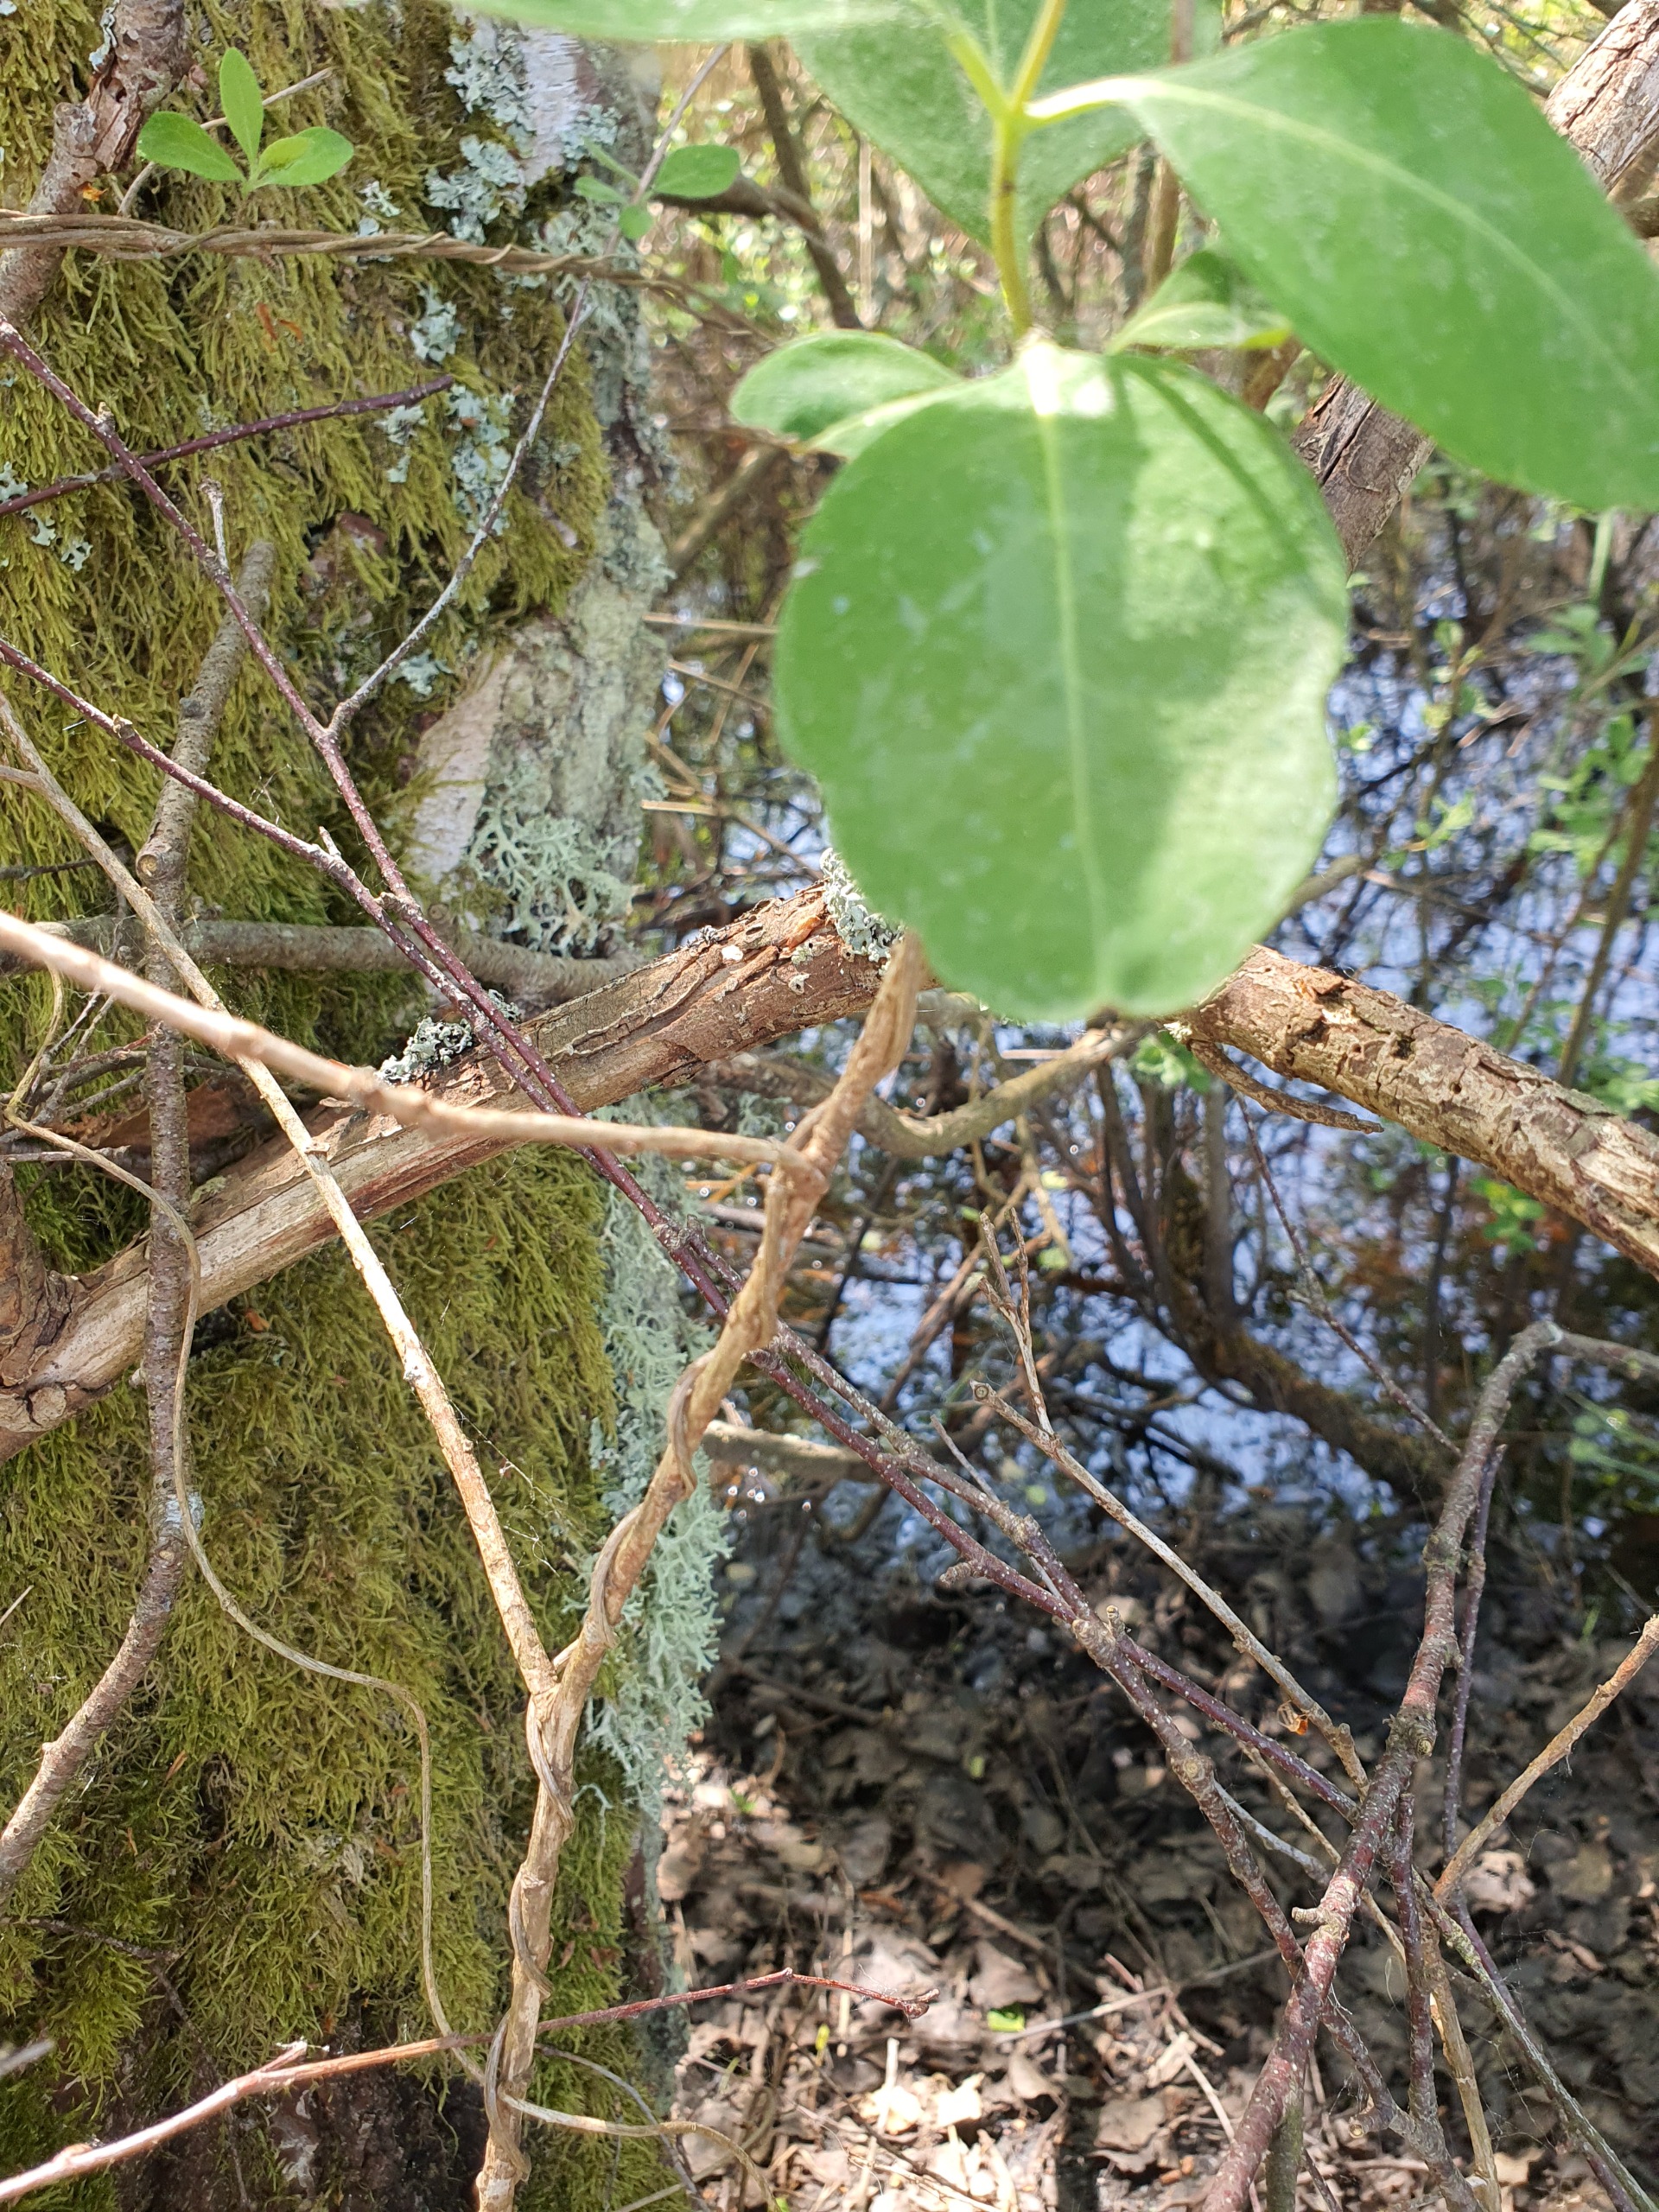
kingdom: Plantae
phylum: Tracheophyta
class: Magnoliopsida
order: Dipsacales
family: Caprifoliaceae
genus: Lonicera
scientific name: Lonicera periclymenum
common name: Almindelig gedeblad
